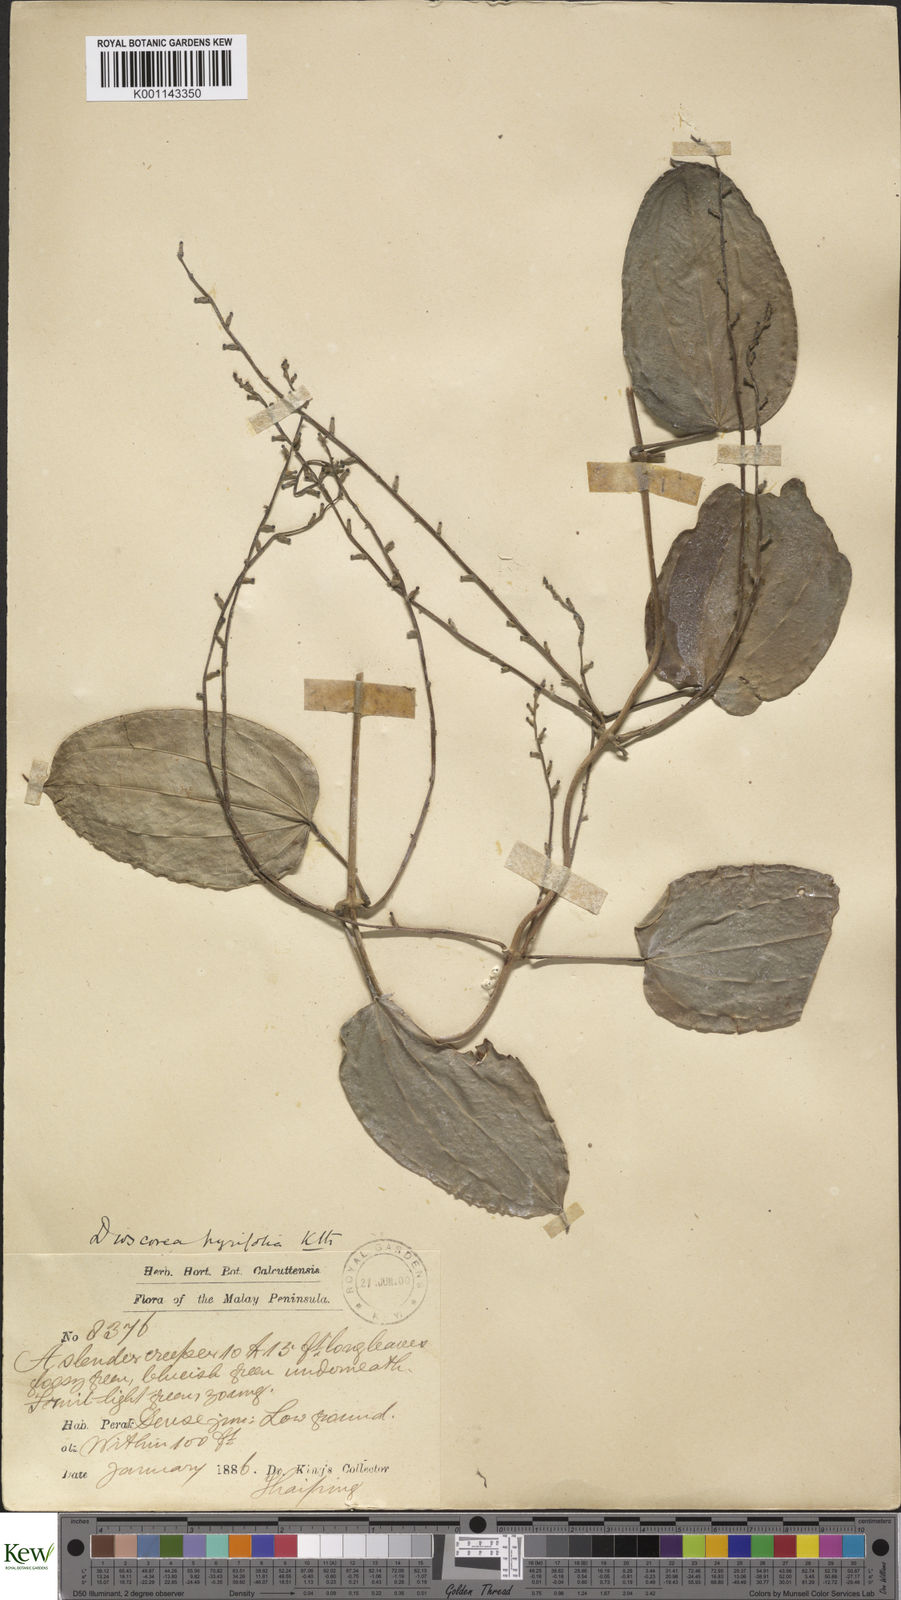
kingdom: Plantae
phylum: Tracheophyta
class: Liliopsida
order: Dioscoreales
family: Dioscoreaceae
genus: Dioscorea
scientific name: Dioscorea pyrifolia
